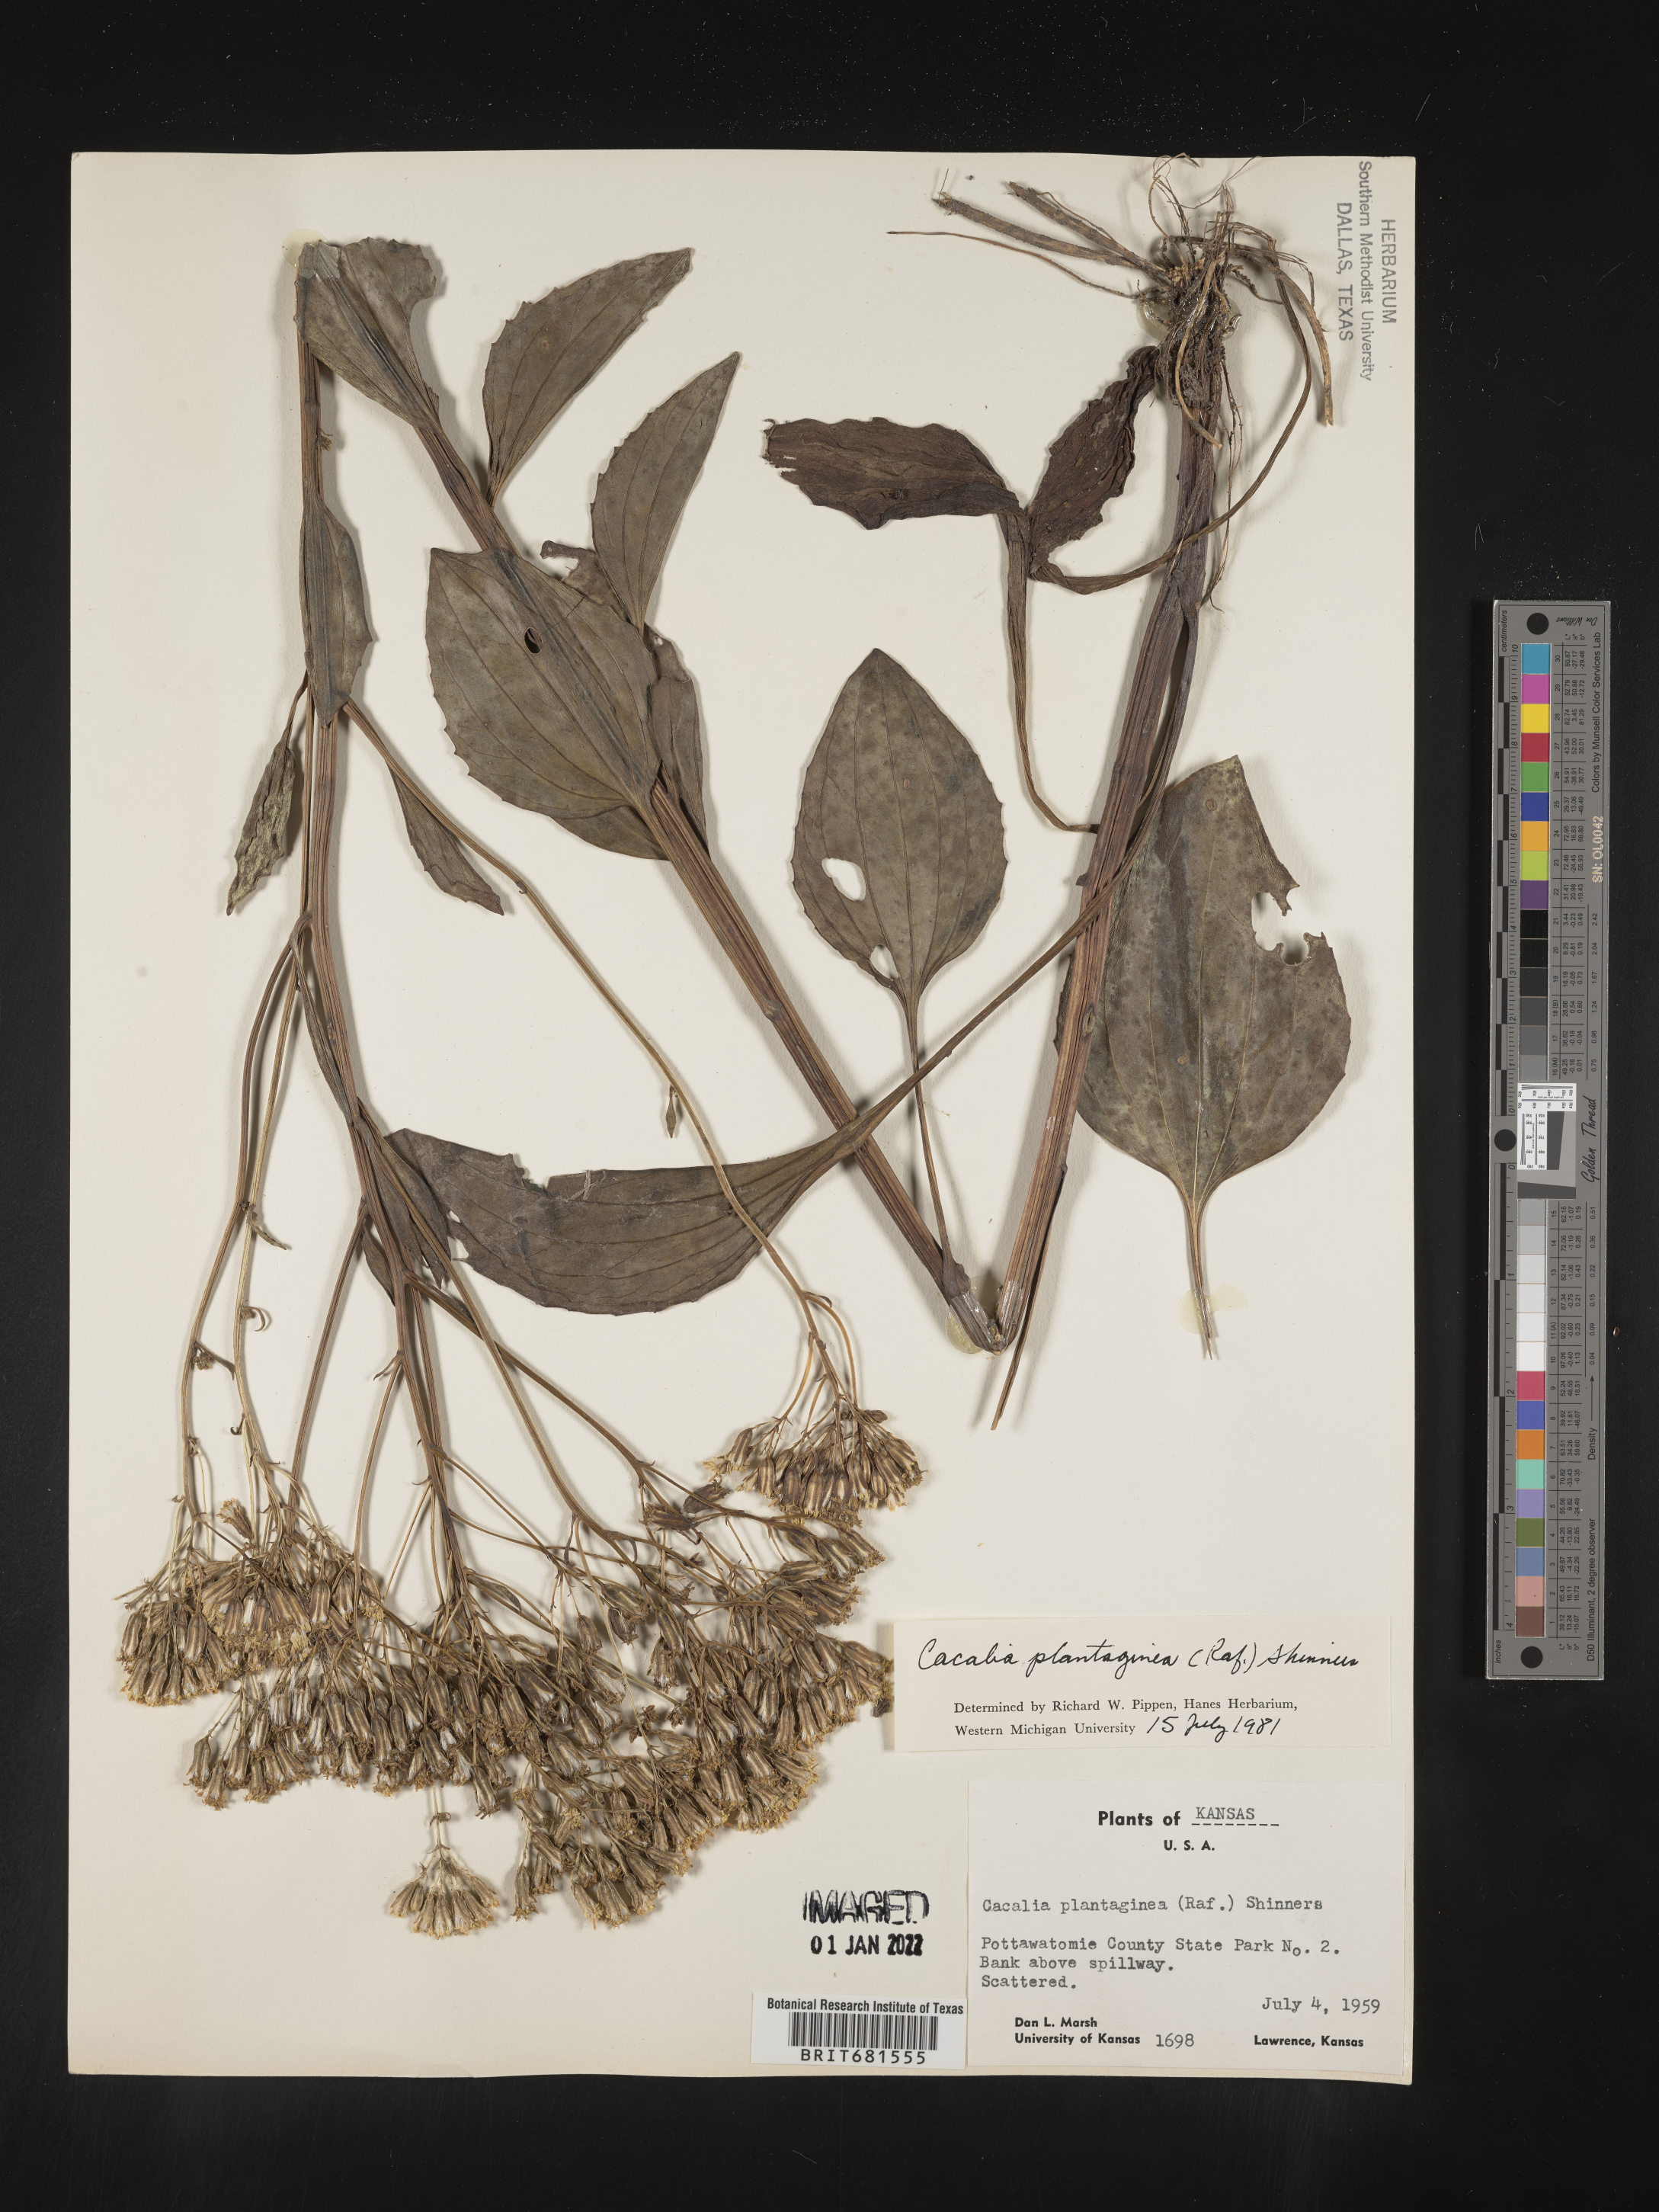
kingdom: Plantae
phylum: Tracheophyta
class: Magnoliopsida
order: Asterales
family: Asteraceae
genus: Arnoglossum
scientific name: Arnoglossum plantagineum
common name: Groove-stemmed indian-plantain
